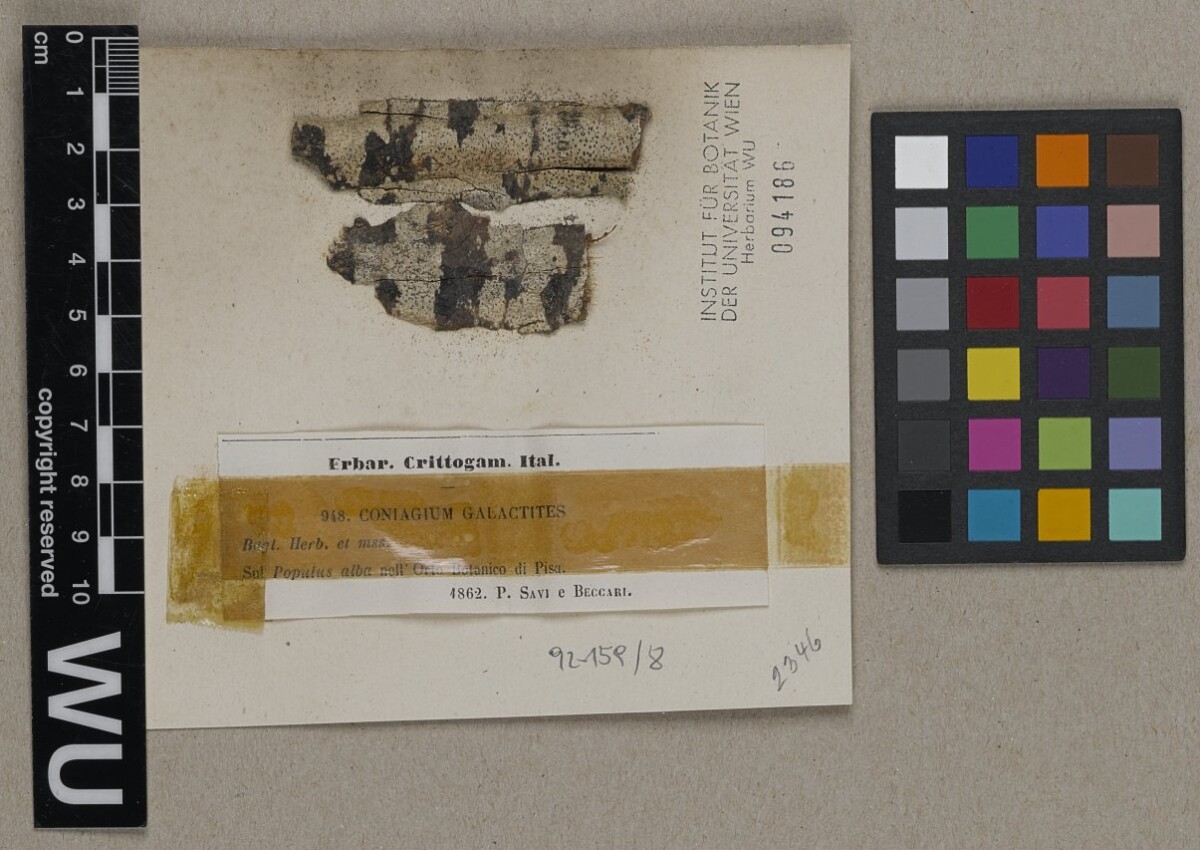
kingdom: Fungi
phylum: Ascomycota
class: Arthoniomycetes
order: Arthoniales
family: Arthoniaceae
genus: Arthonia
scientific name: Arthonia galactites
